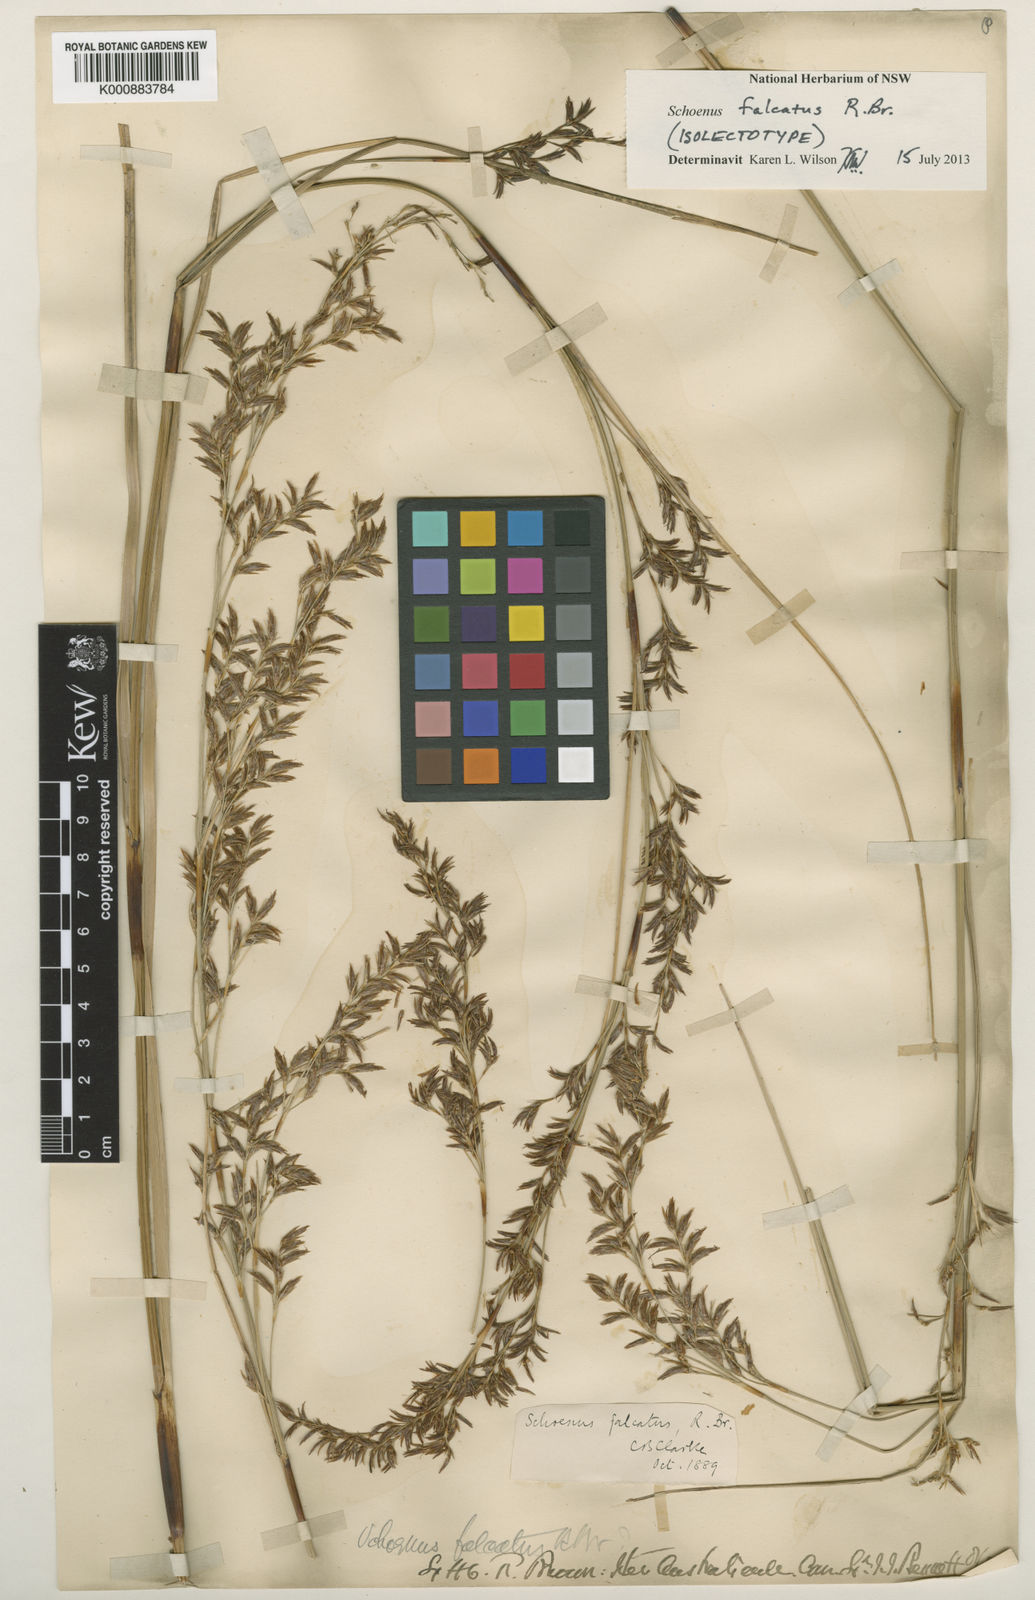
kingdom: Plantae
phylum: Tracheophyta
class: Liliopsida
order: Poales
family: Cyperaceae
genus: Schoenus
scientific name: Schoenus falcatus
